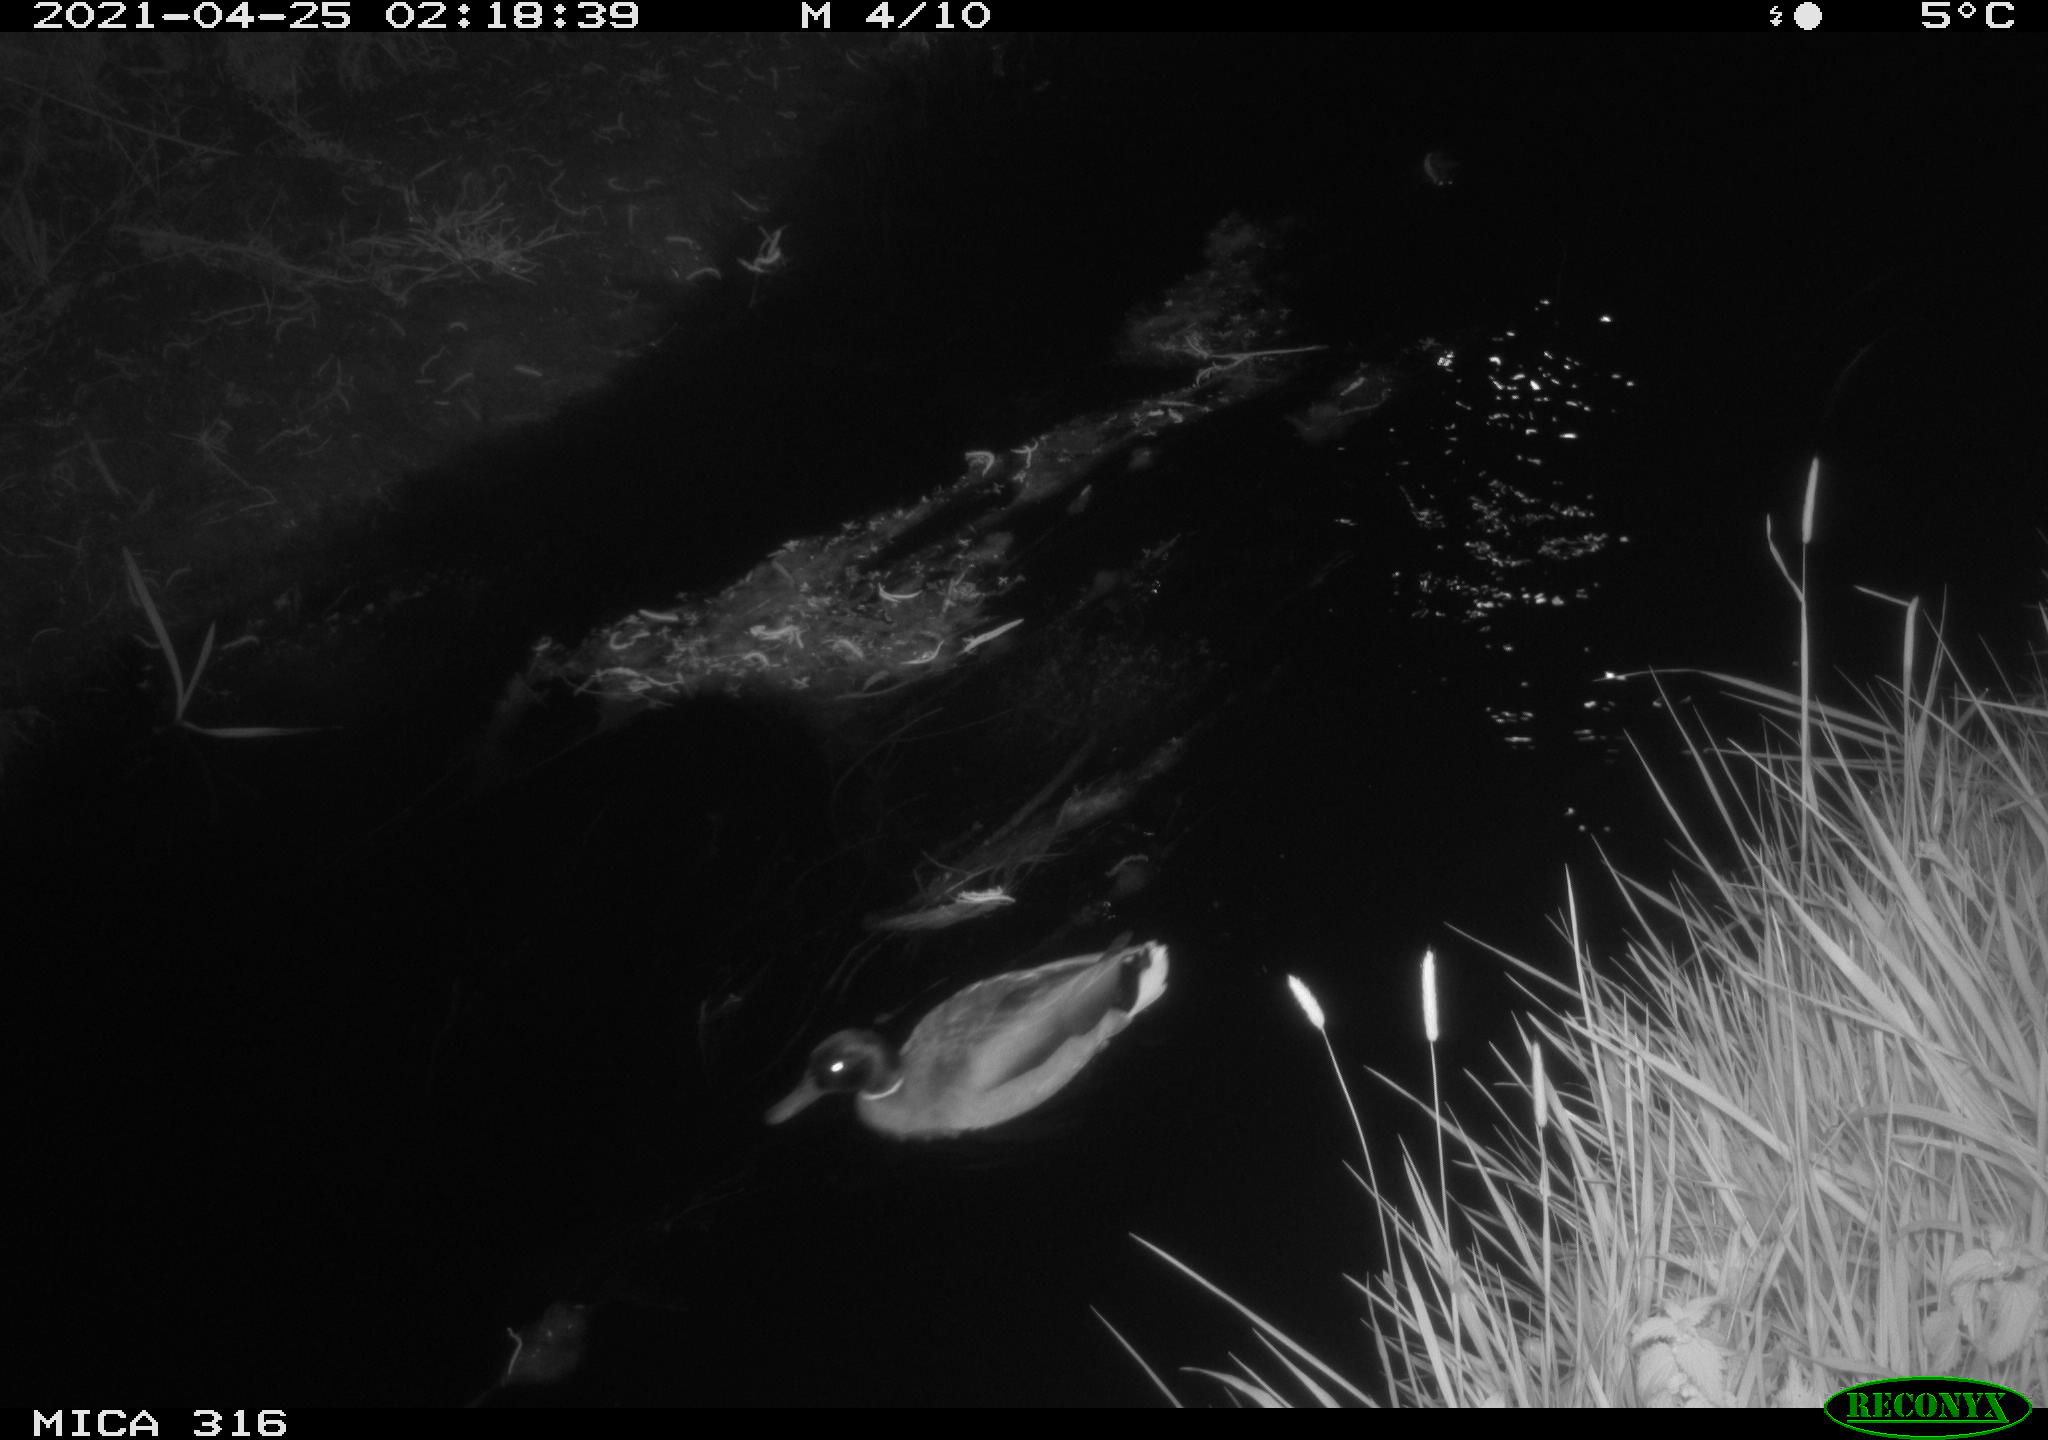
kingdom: Animalia
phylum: Chordata
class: Aves
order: Anseriformes
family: Anatidae
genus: Anas
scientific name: Anas platyrhynchos
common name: Mallard
